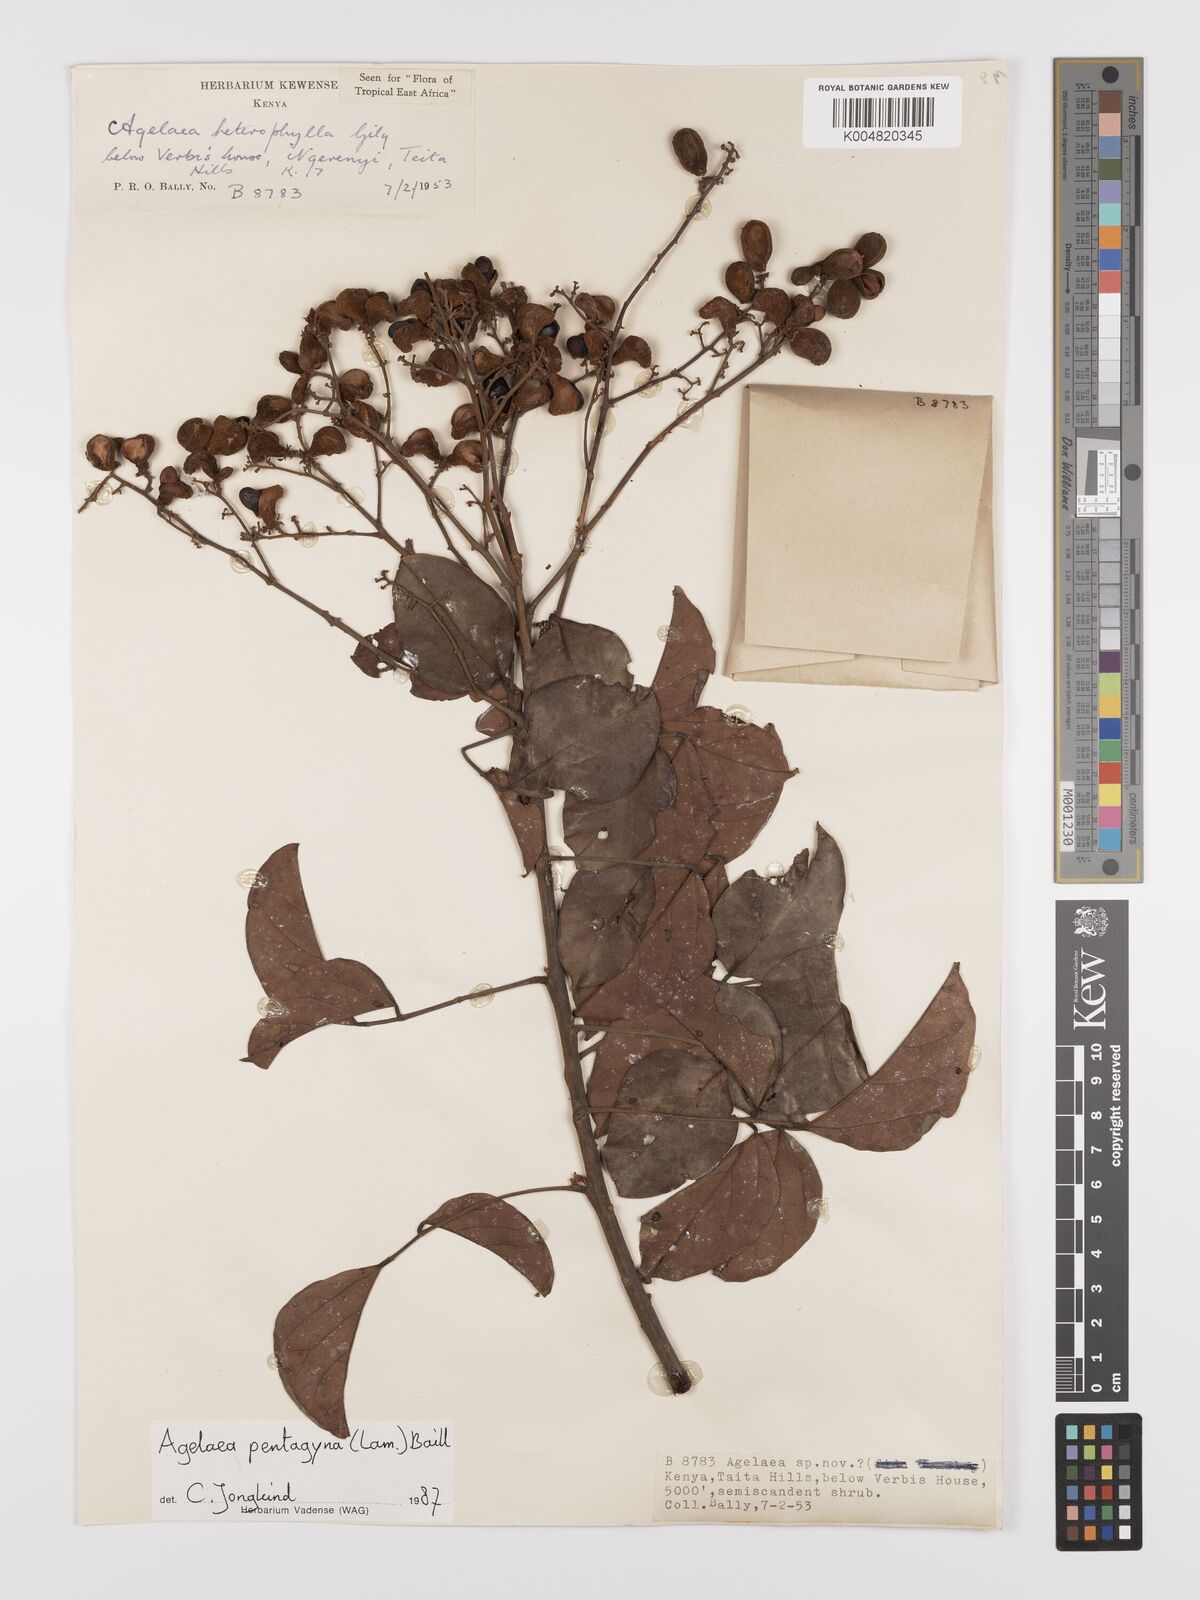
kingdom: Plantae
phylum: Tracheophyta
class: Magnoliopsida
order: Oxalidales
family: Connaraceae
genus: Agelaea
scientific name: Agelaea pentagyna
